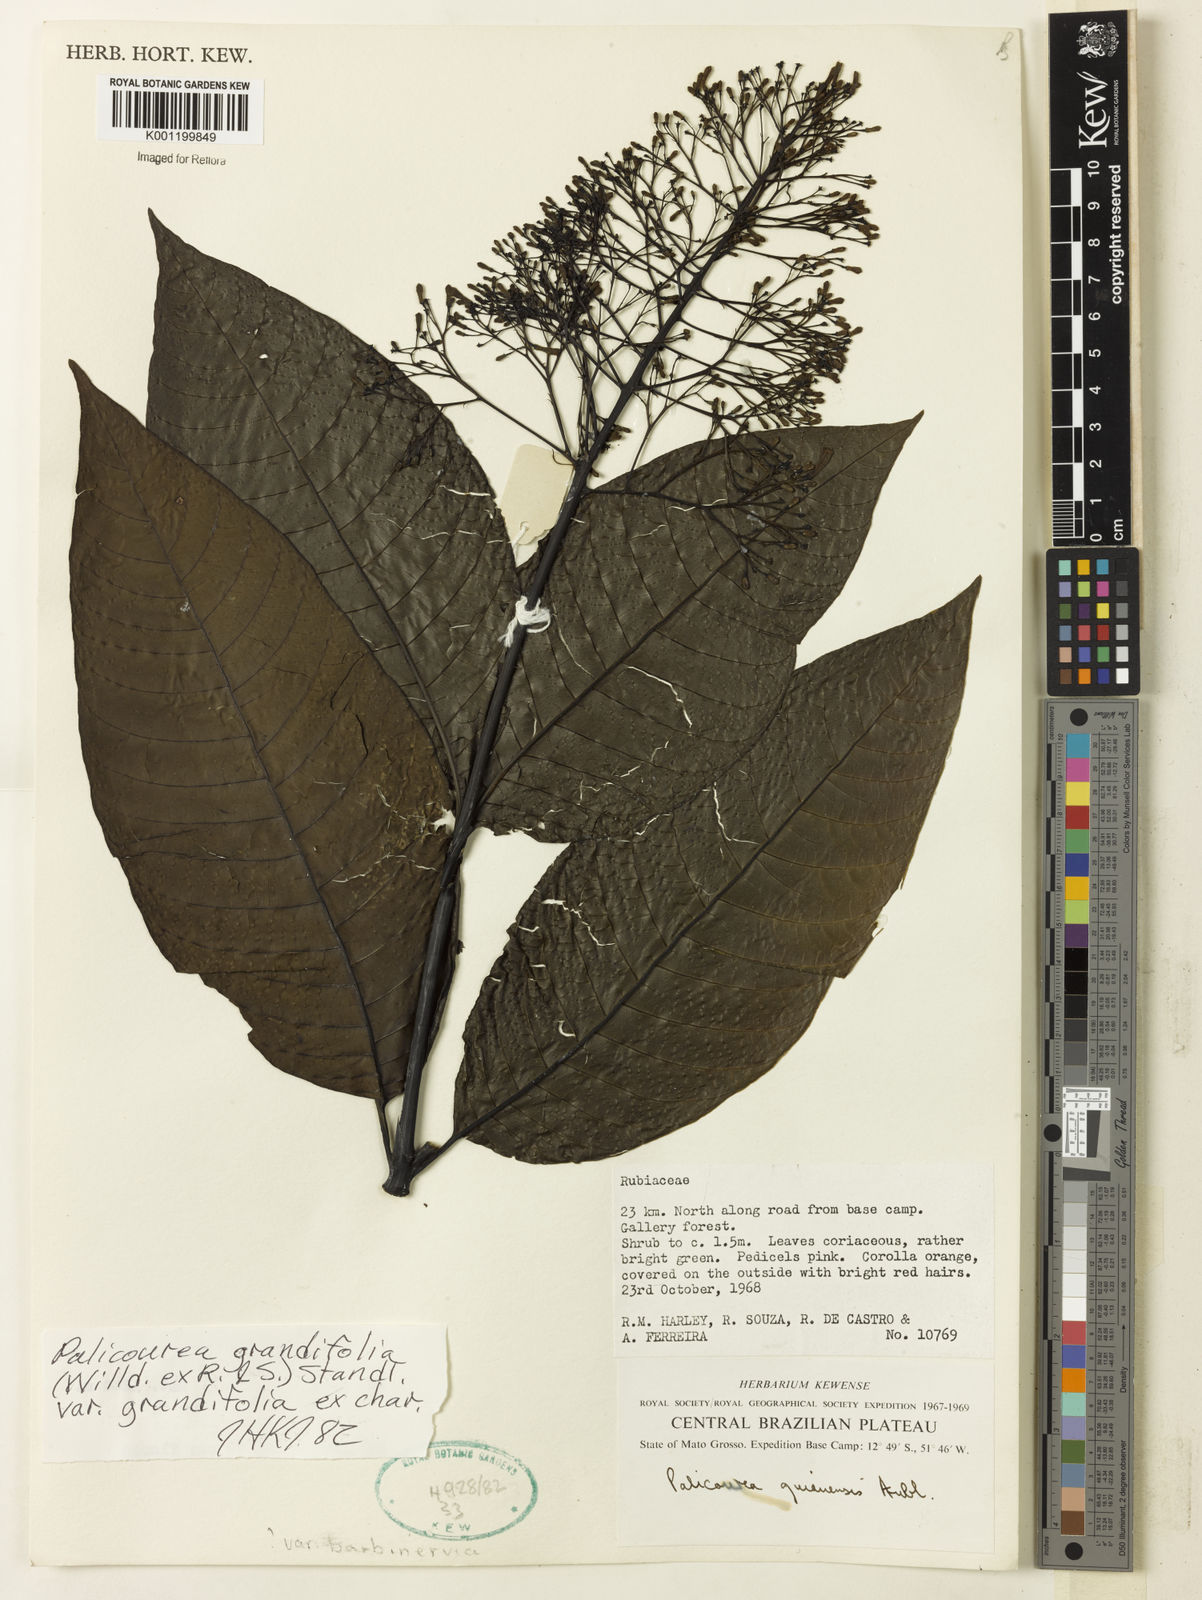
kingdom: Plantae
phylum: Tracheophyta
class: Magnoliopsida
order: Gentianales
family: Rubiaceae
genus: Palicourea
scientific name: Palicourea grandifolia
